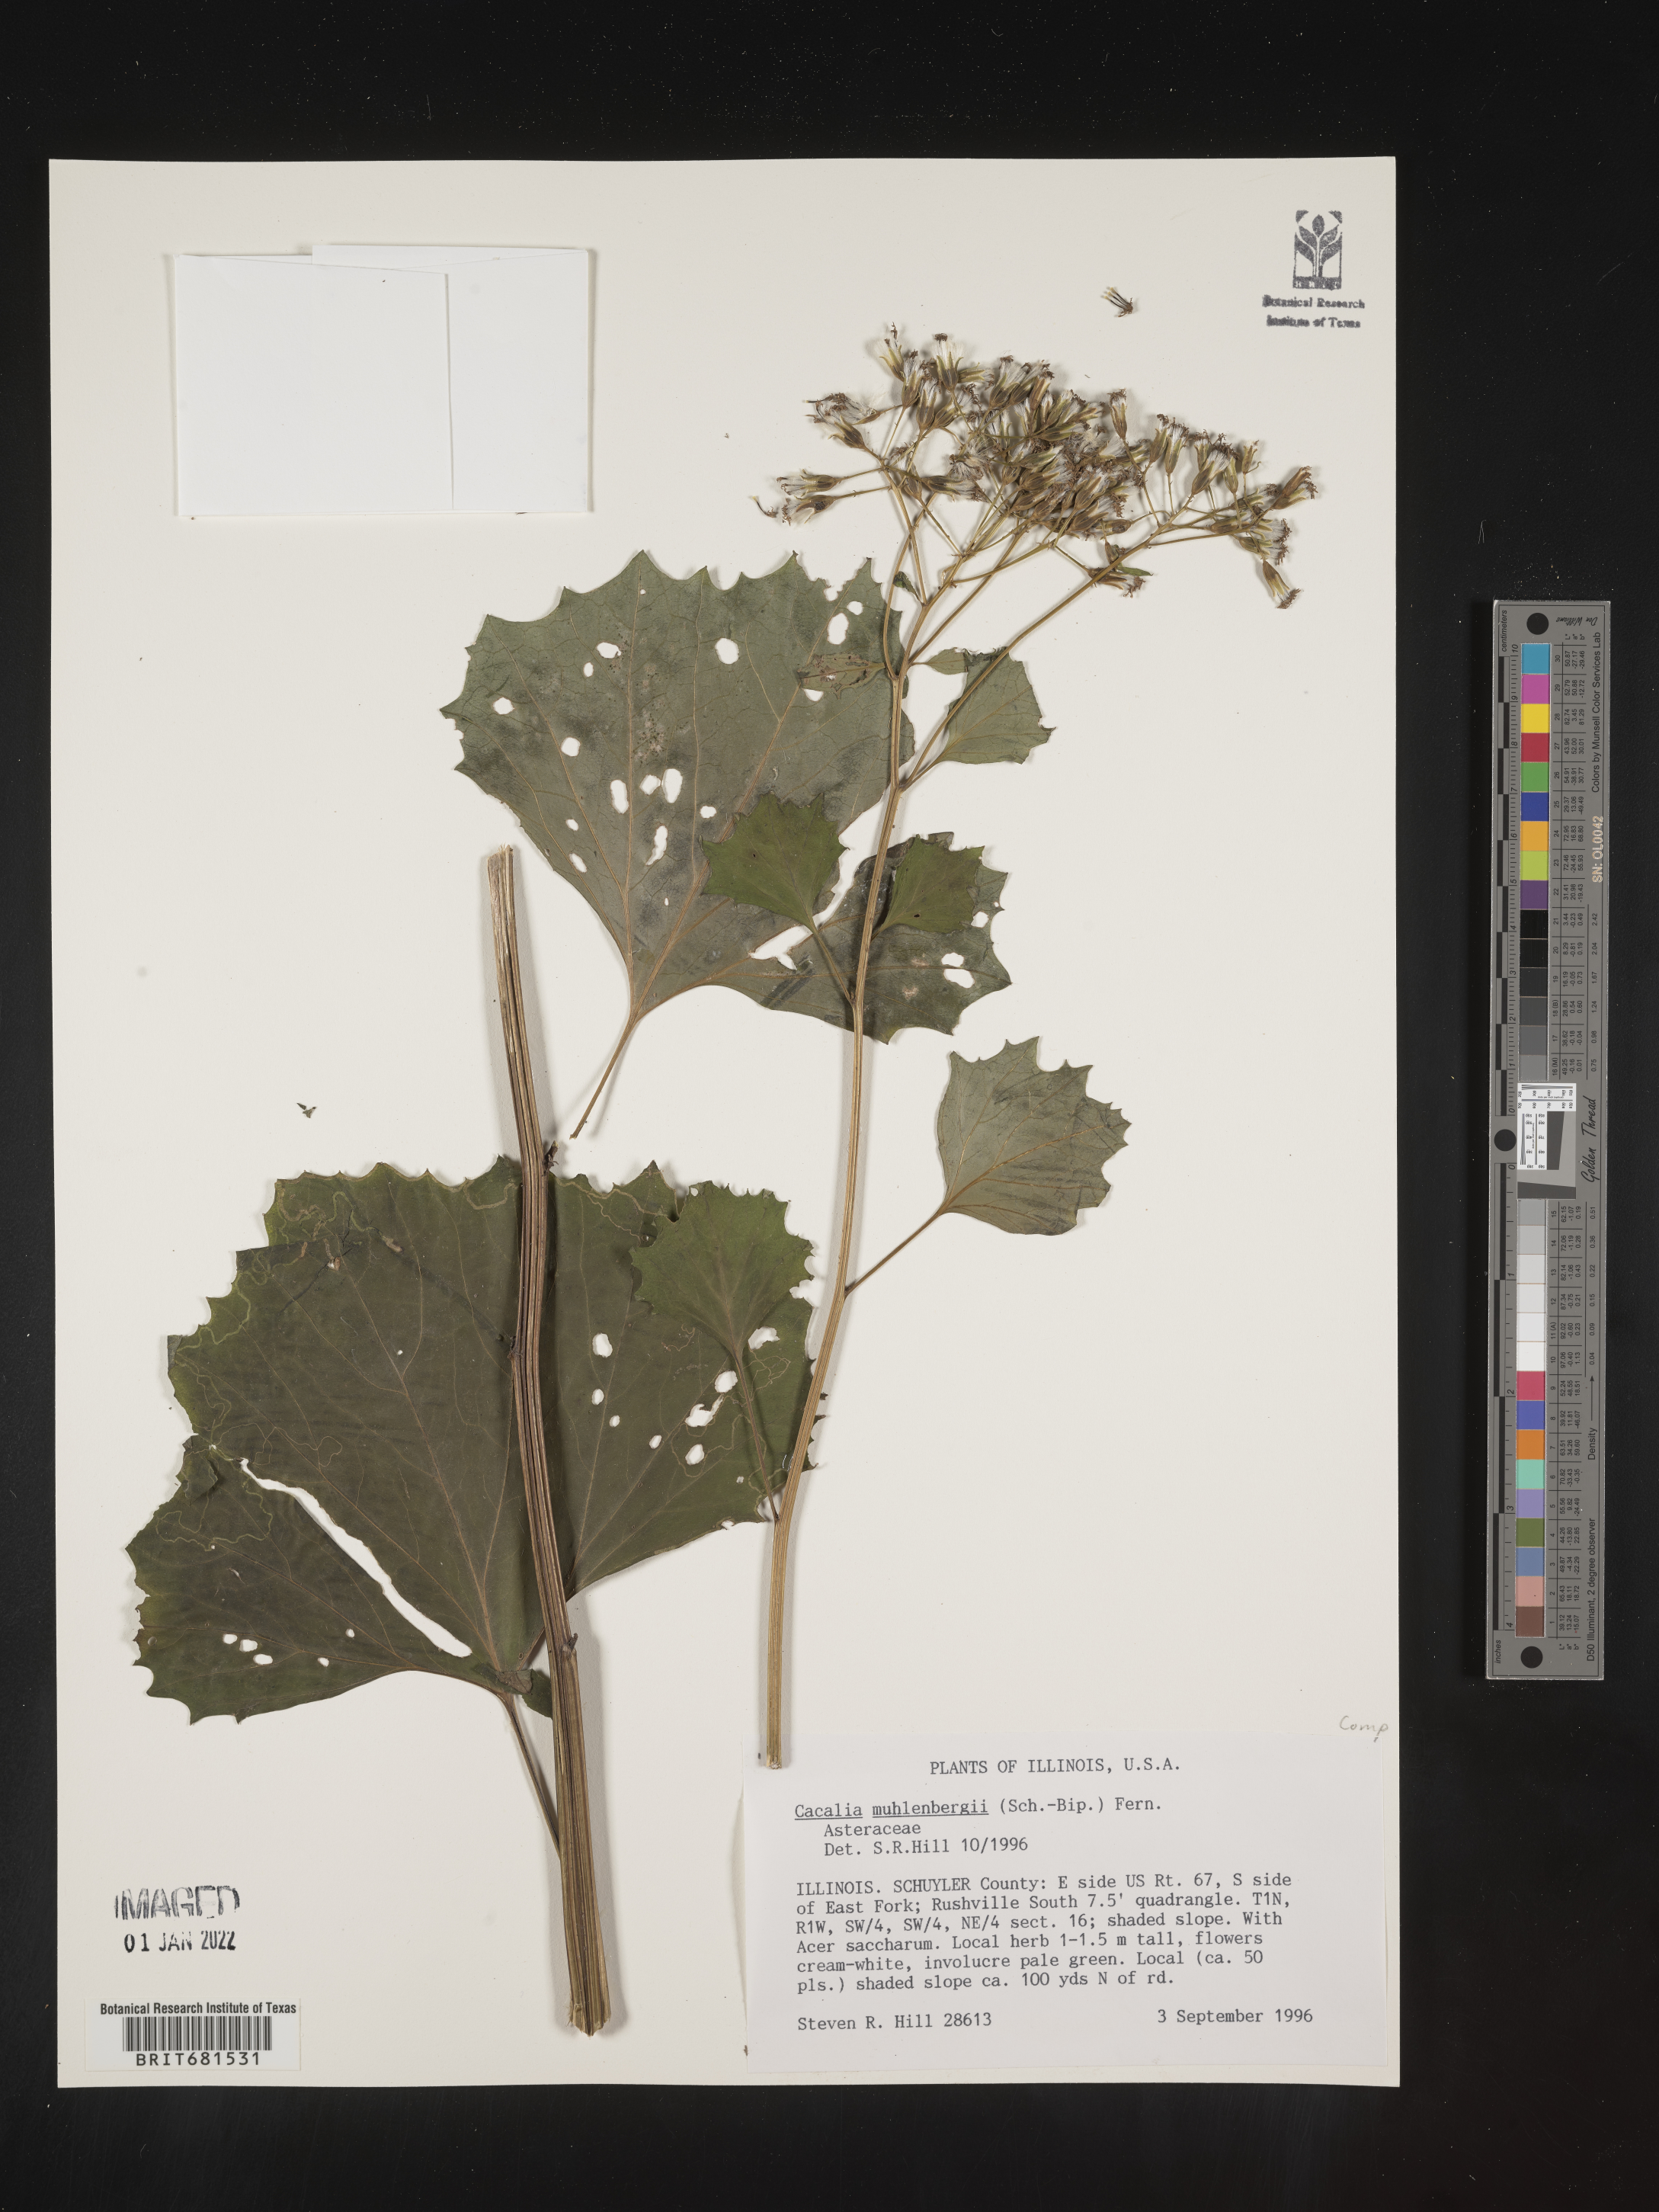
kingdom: Plantae
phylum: Tracheophyta
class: Magnoliopsida
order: Asterales
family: Asteraceae
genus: Arnoglossum
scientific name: Arnoglossum reniforme
